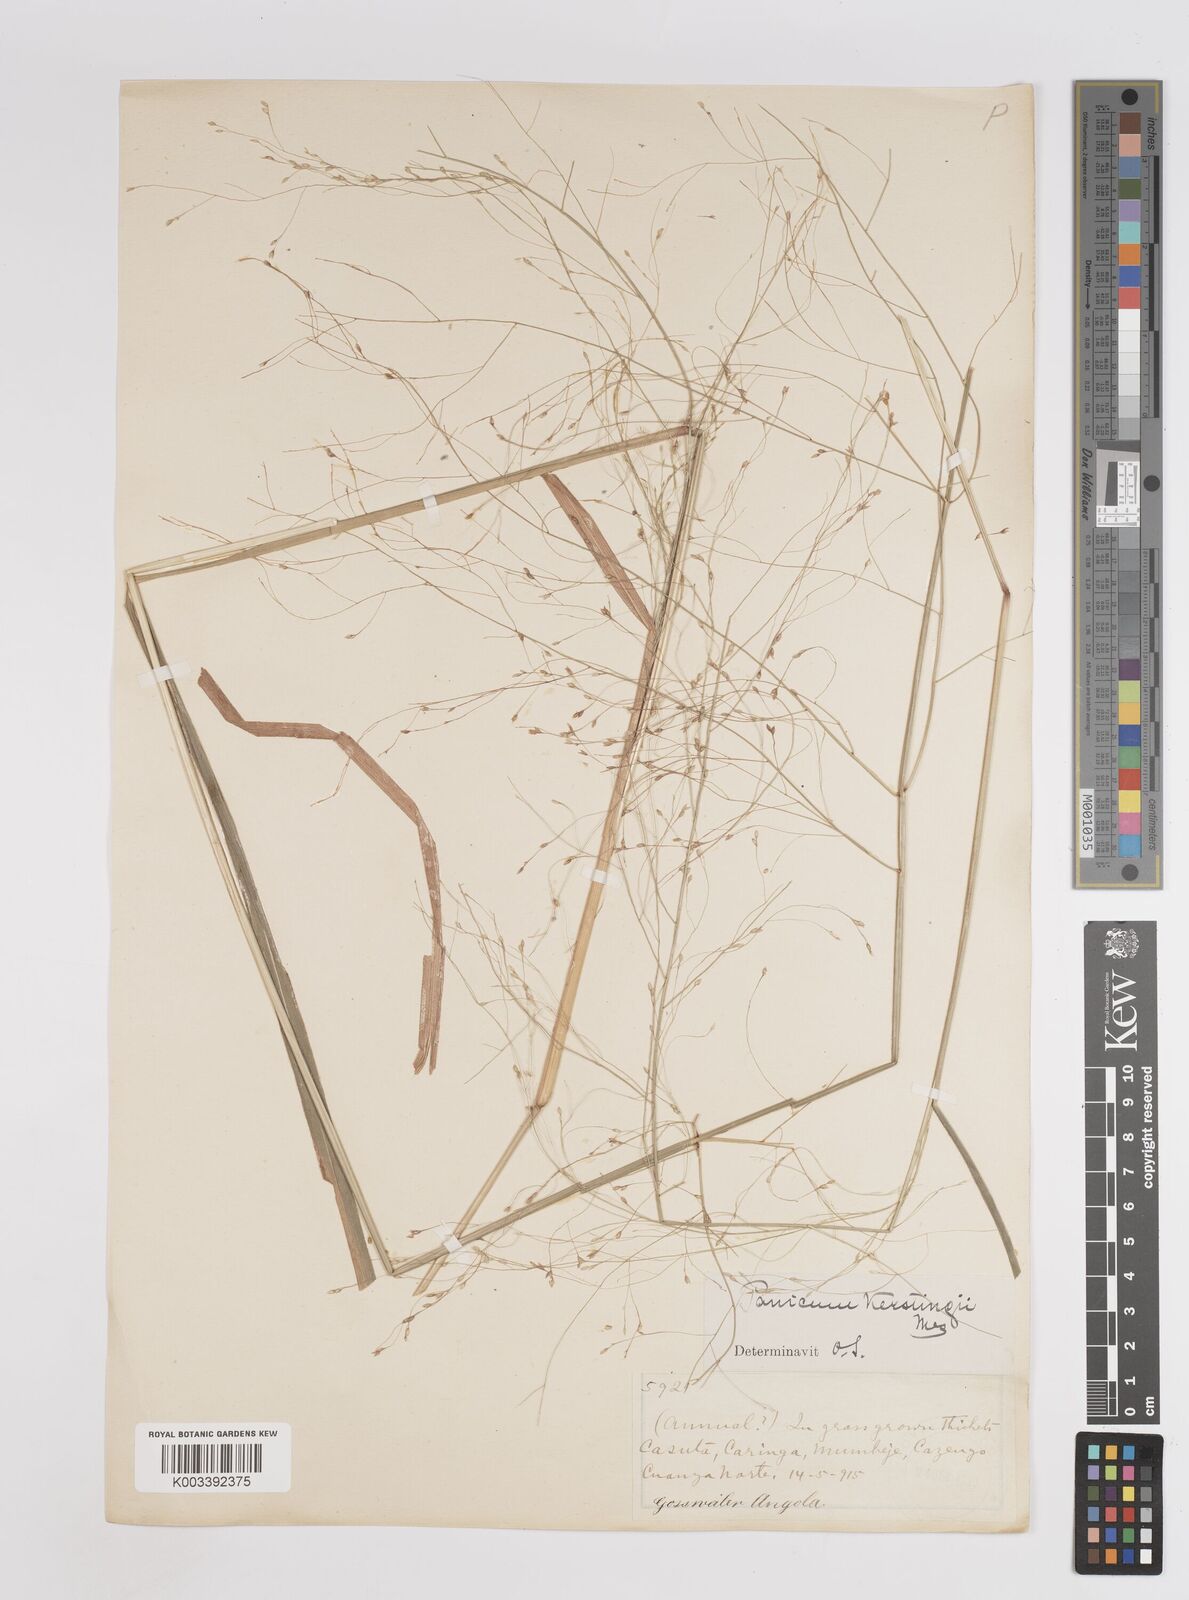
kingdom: Plantae
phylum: Tracheophyta
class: Liliopsida
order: Poales
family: Poaceae
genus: Panicum
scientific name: Panicum pansum
